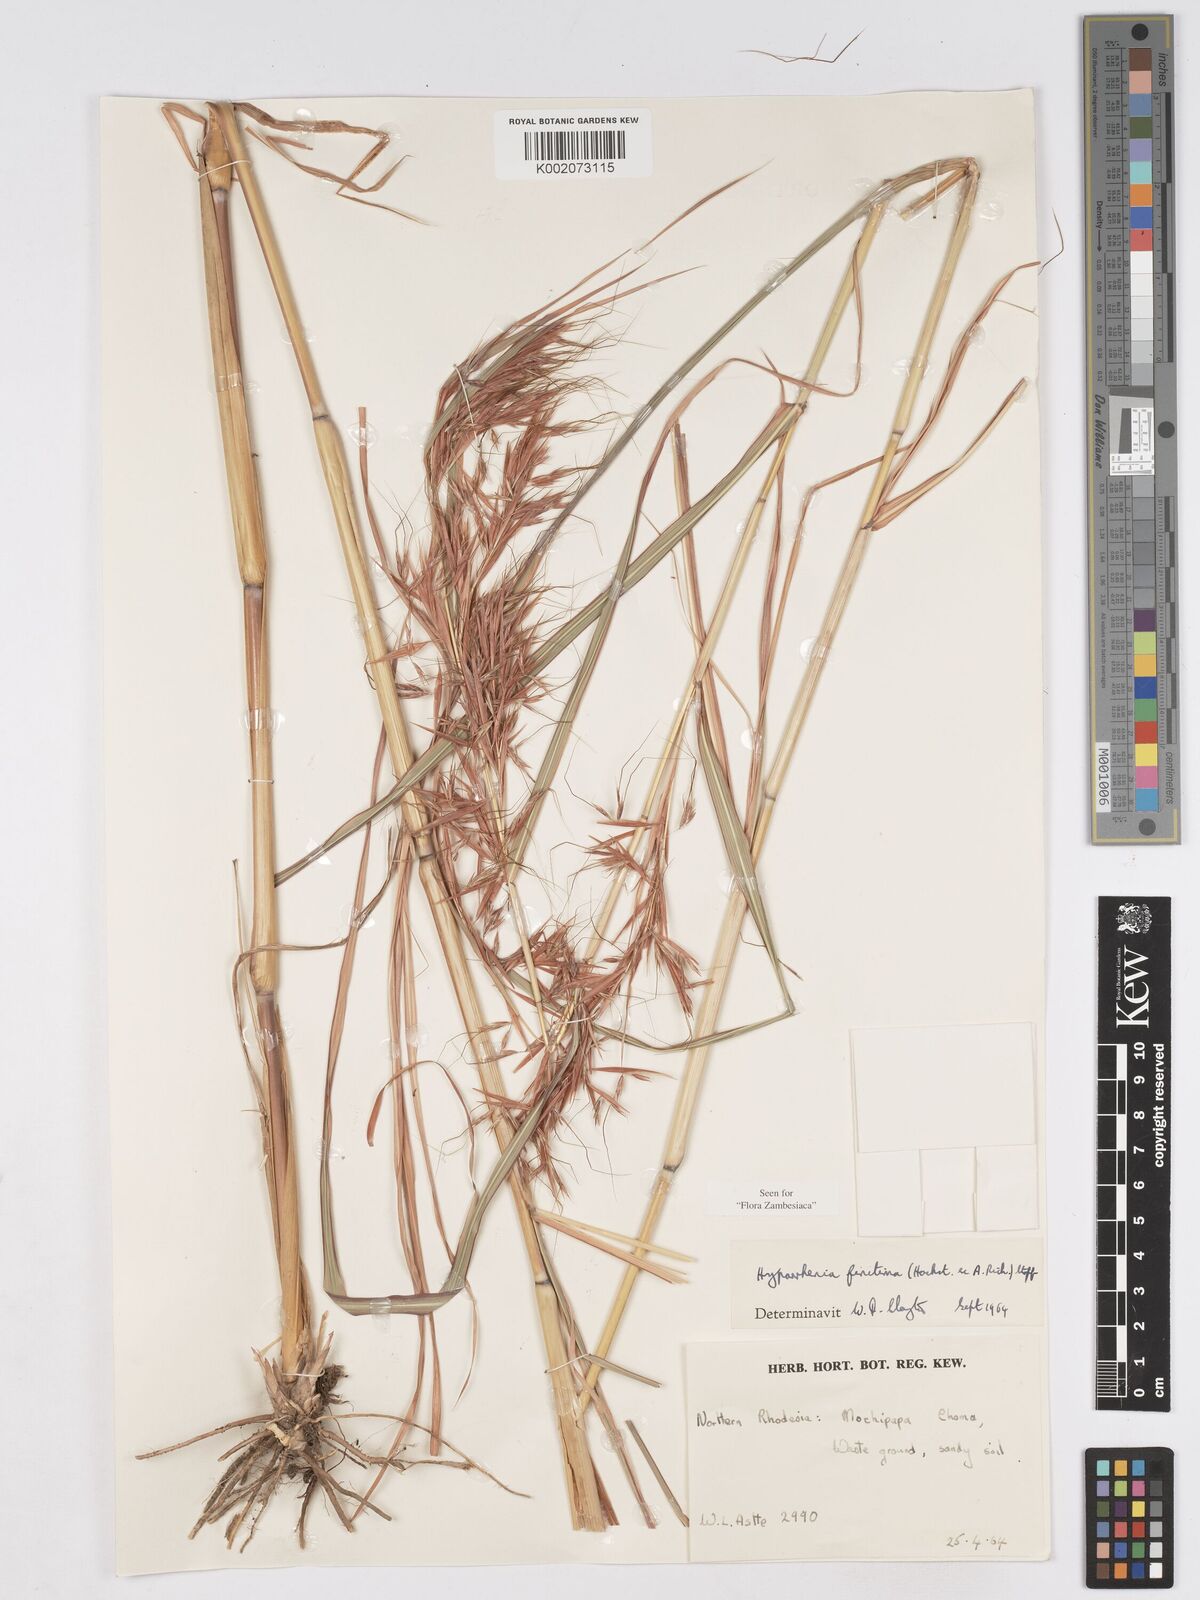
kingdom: Plantae
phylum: Tracheophyta
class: Liliopsida
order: Poales
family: Poaceae
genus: Hyparrhenia
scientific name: Hyparrhenia finitima
